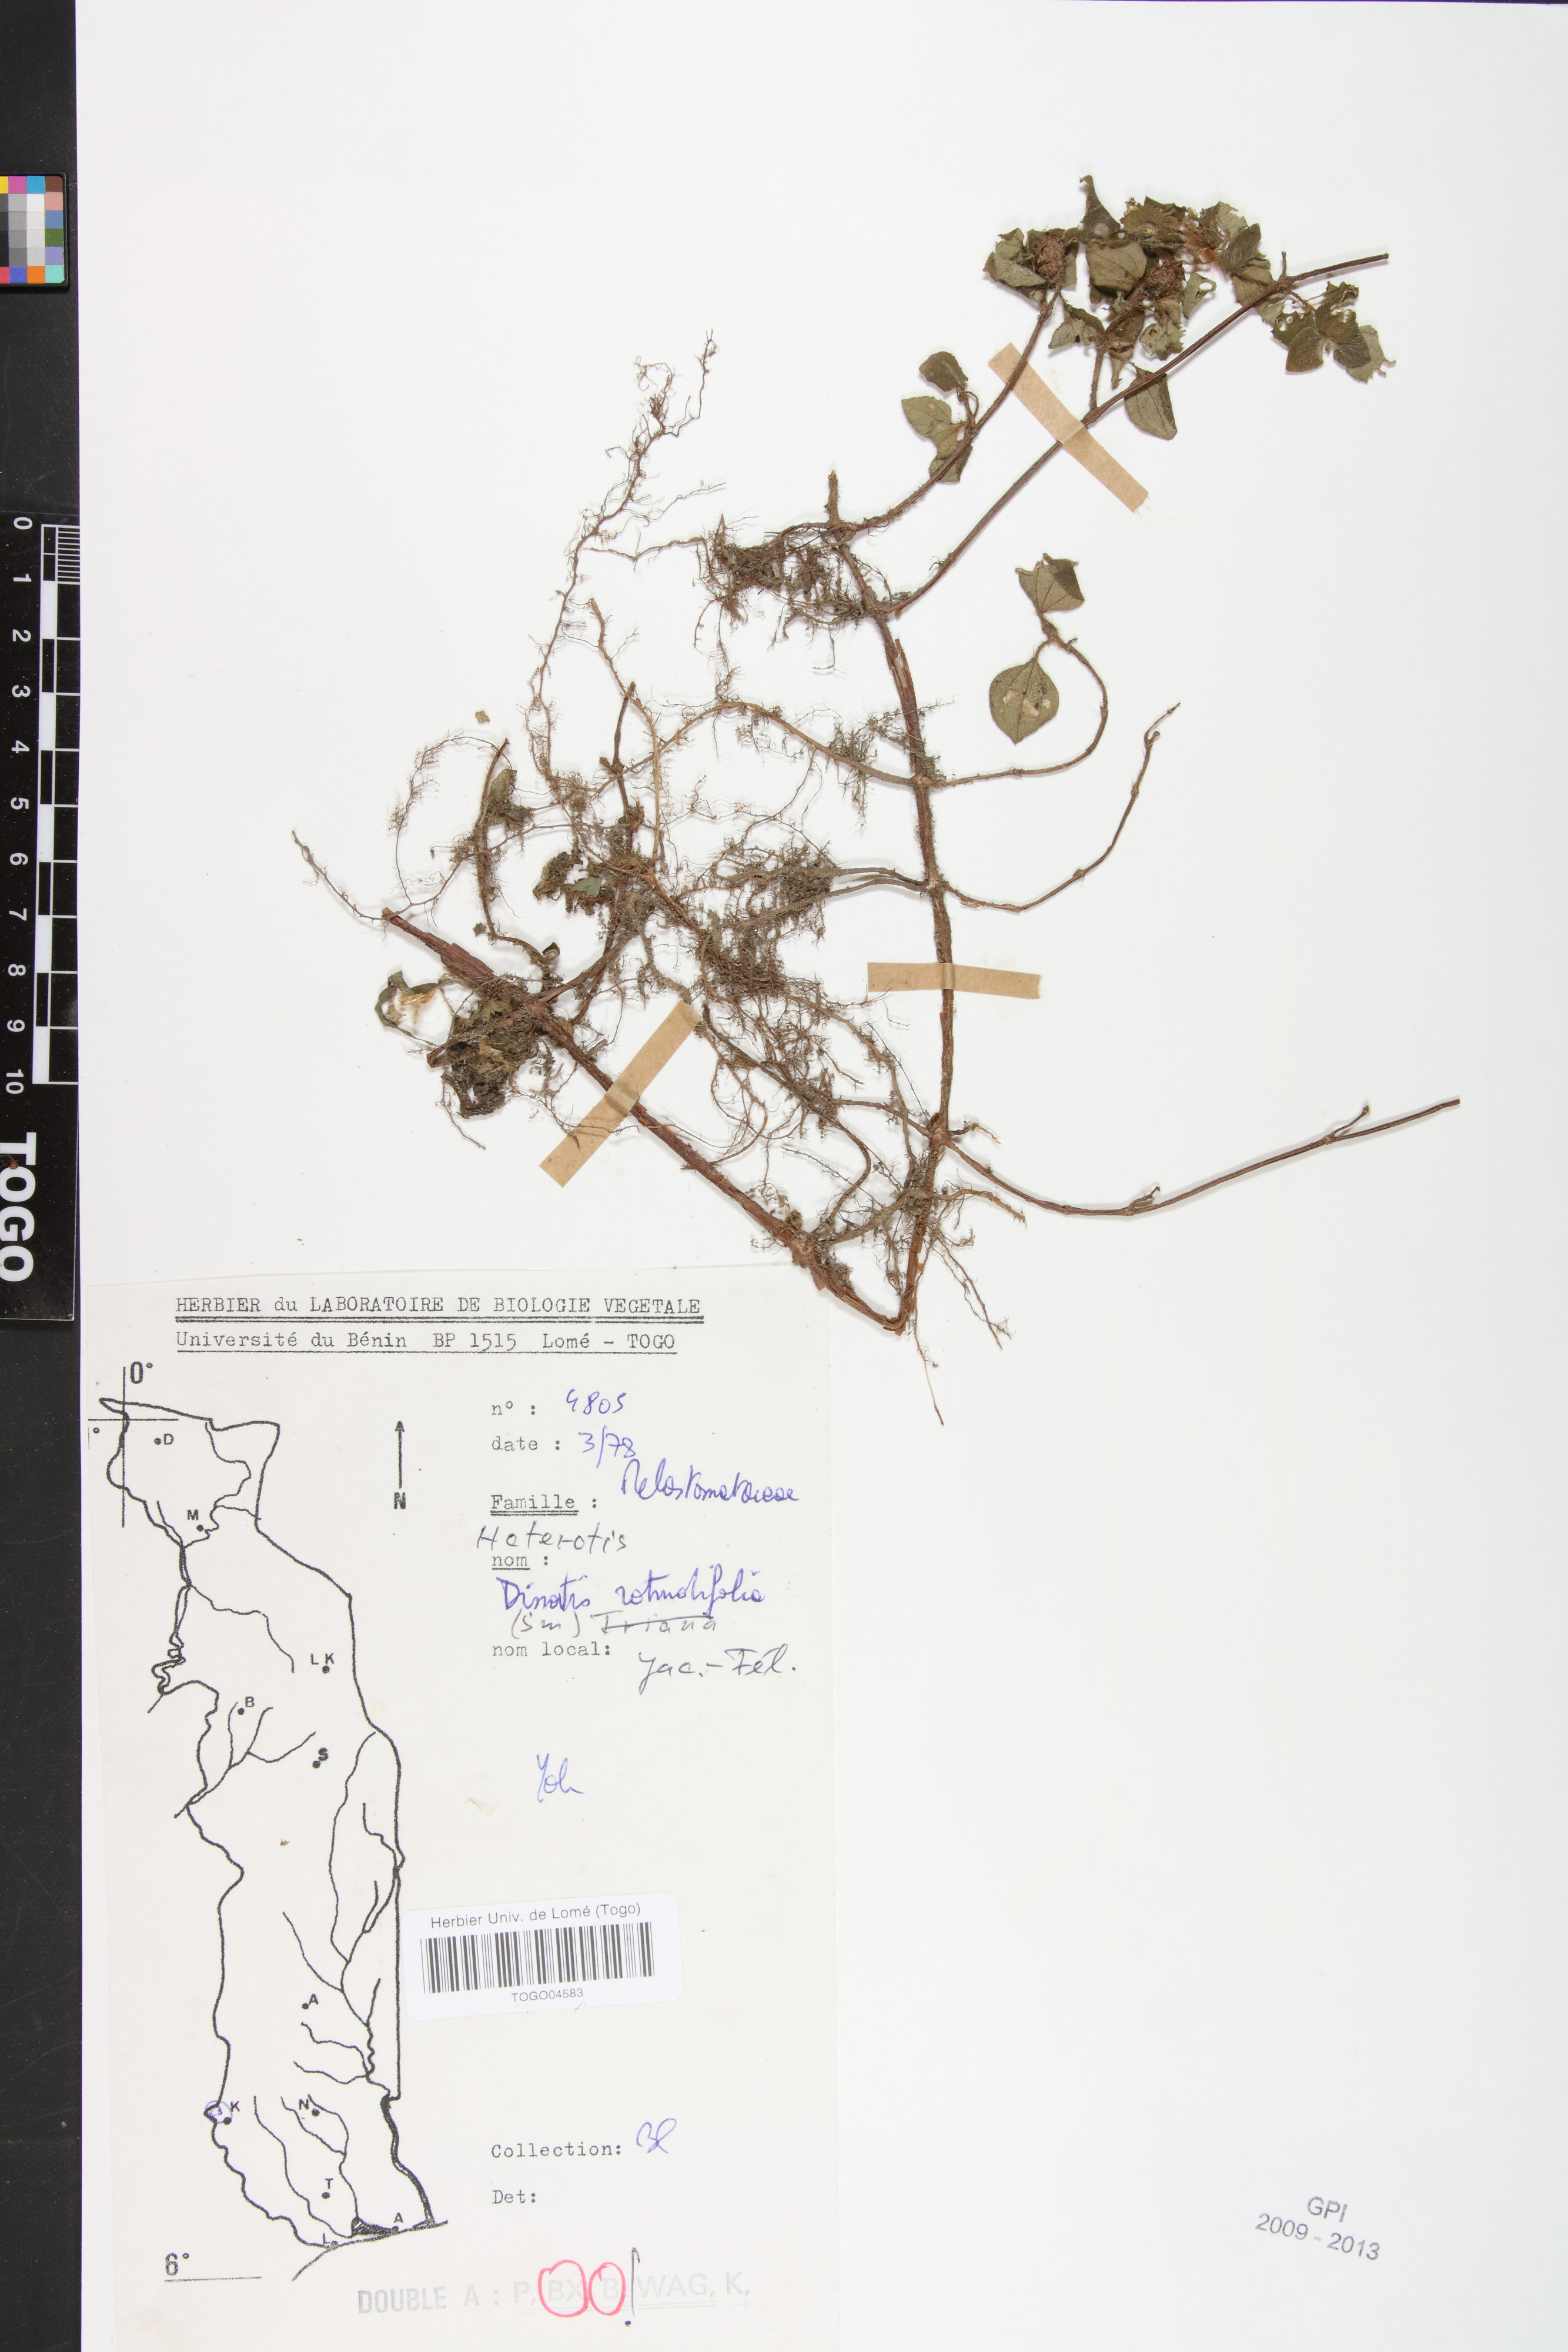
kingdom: Plantae
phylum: Tracheophyta
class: Magnoliopsida
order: Myrtales
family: Melastomataceae
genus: Heterotis
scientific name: Heterotis prostrata
